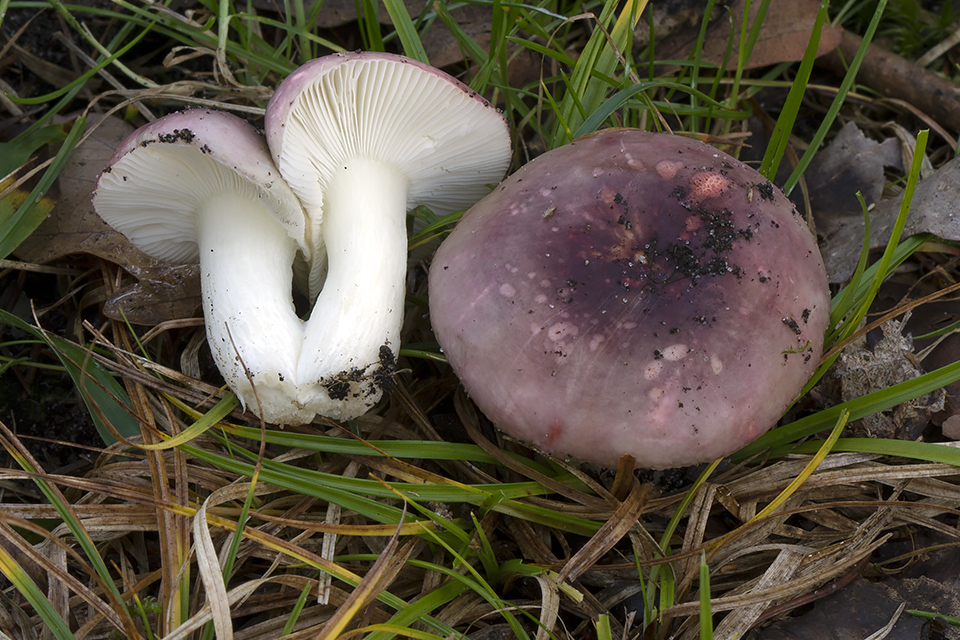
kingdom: Fungi
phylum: Basidiomycota
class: Agaricomycetes
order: Russulales
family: Russulaceae
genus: Russula
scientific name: Russula fragilis
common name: savbladet skørhat
